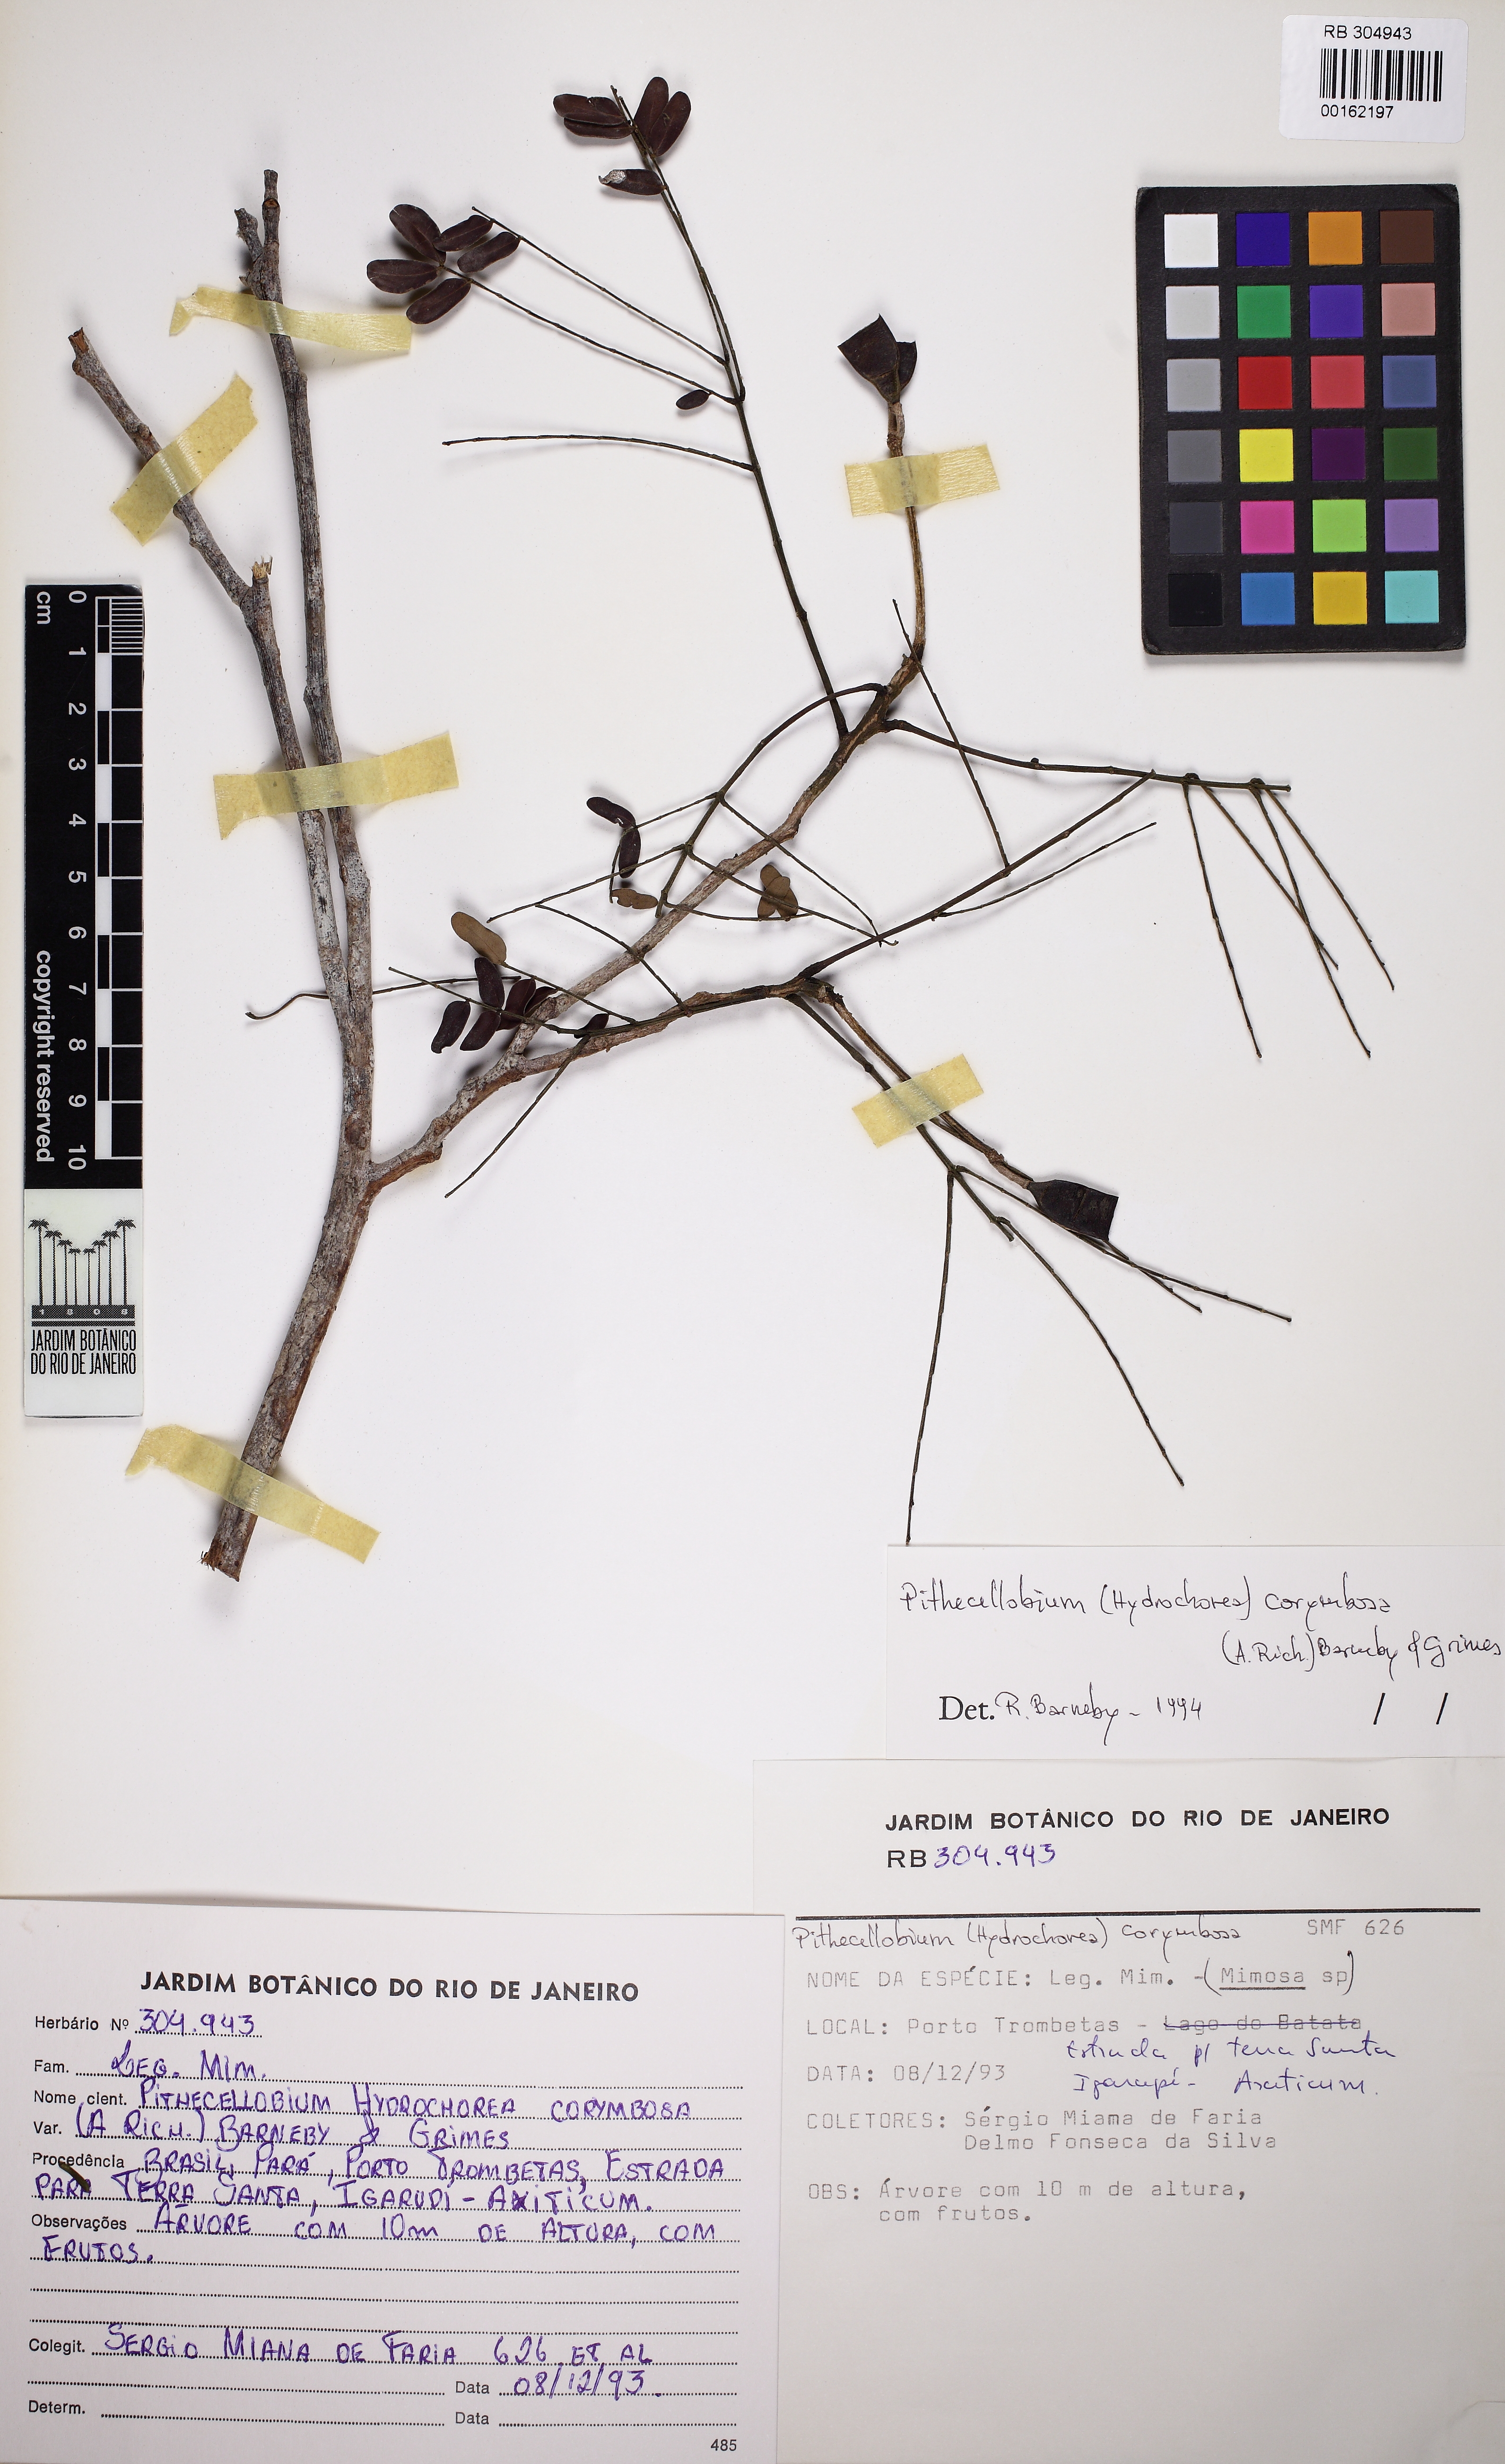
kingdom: Plantae
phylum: Tracheophyta
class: Magnoliopsida
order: Fabales
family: Fabaceae
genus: Hydrochorea
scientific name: Hydrochorea corymbosa
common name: Swamp manariballi
